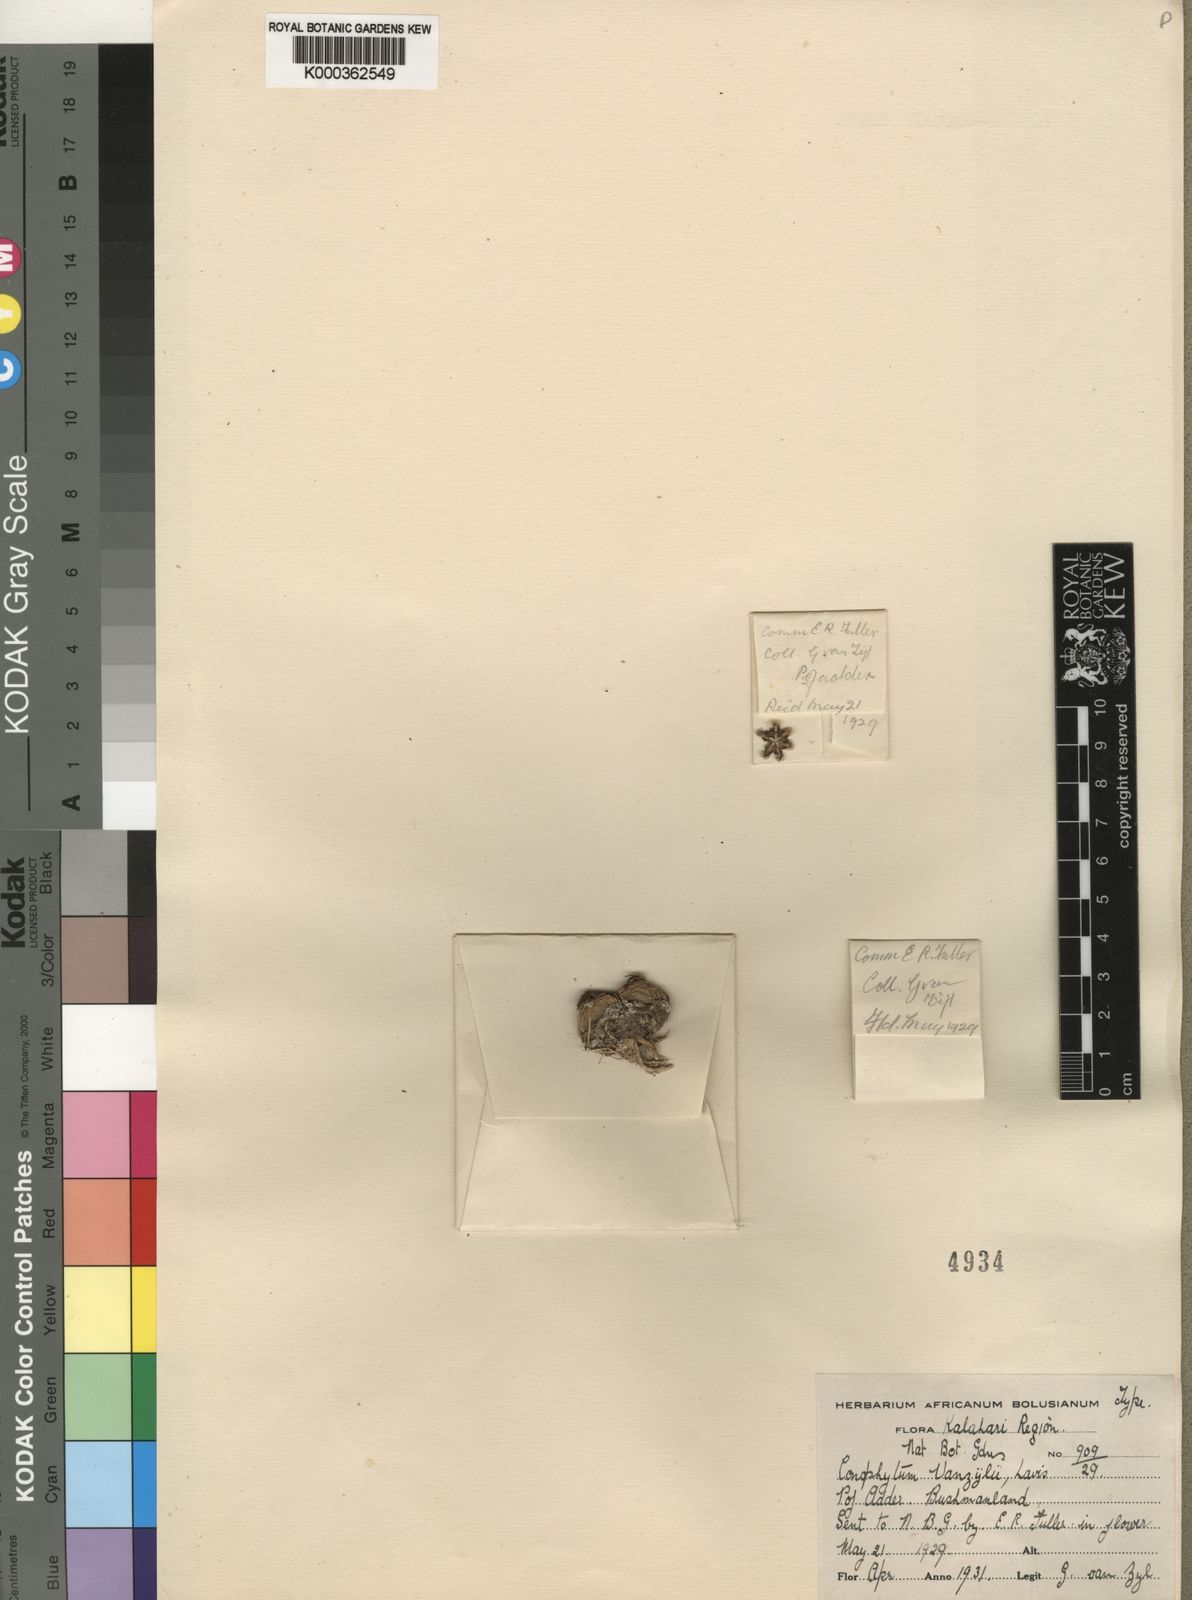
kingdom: Plantae
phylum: Tracheophyta
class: Magnoliopsida
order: Caryophyllales
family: Aizoaceae
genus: Conophytum
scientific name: Conophytum breve
